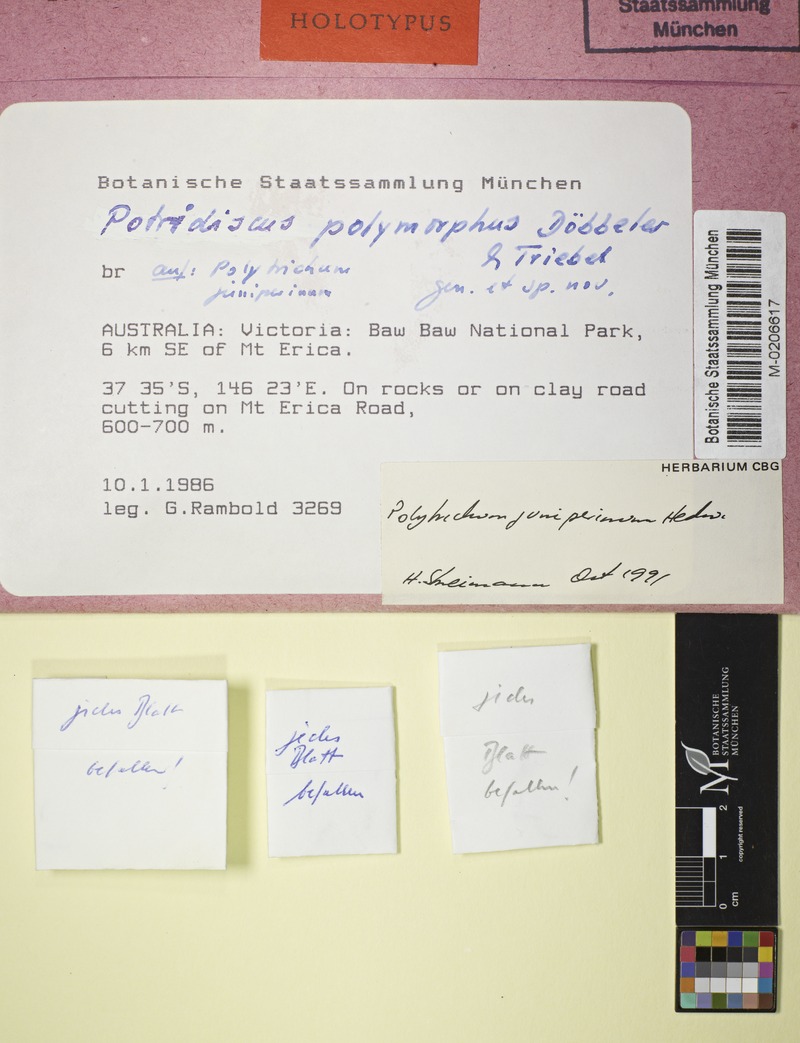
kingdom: Fungi
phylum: Ascomycota
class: Leotiomycetes
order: Helotiales
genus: Potridiscus
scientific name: Potridiscus polymorphus
